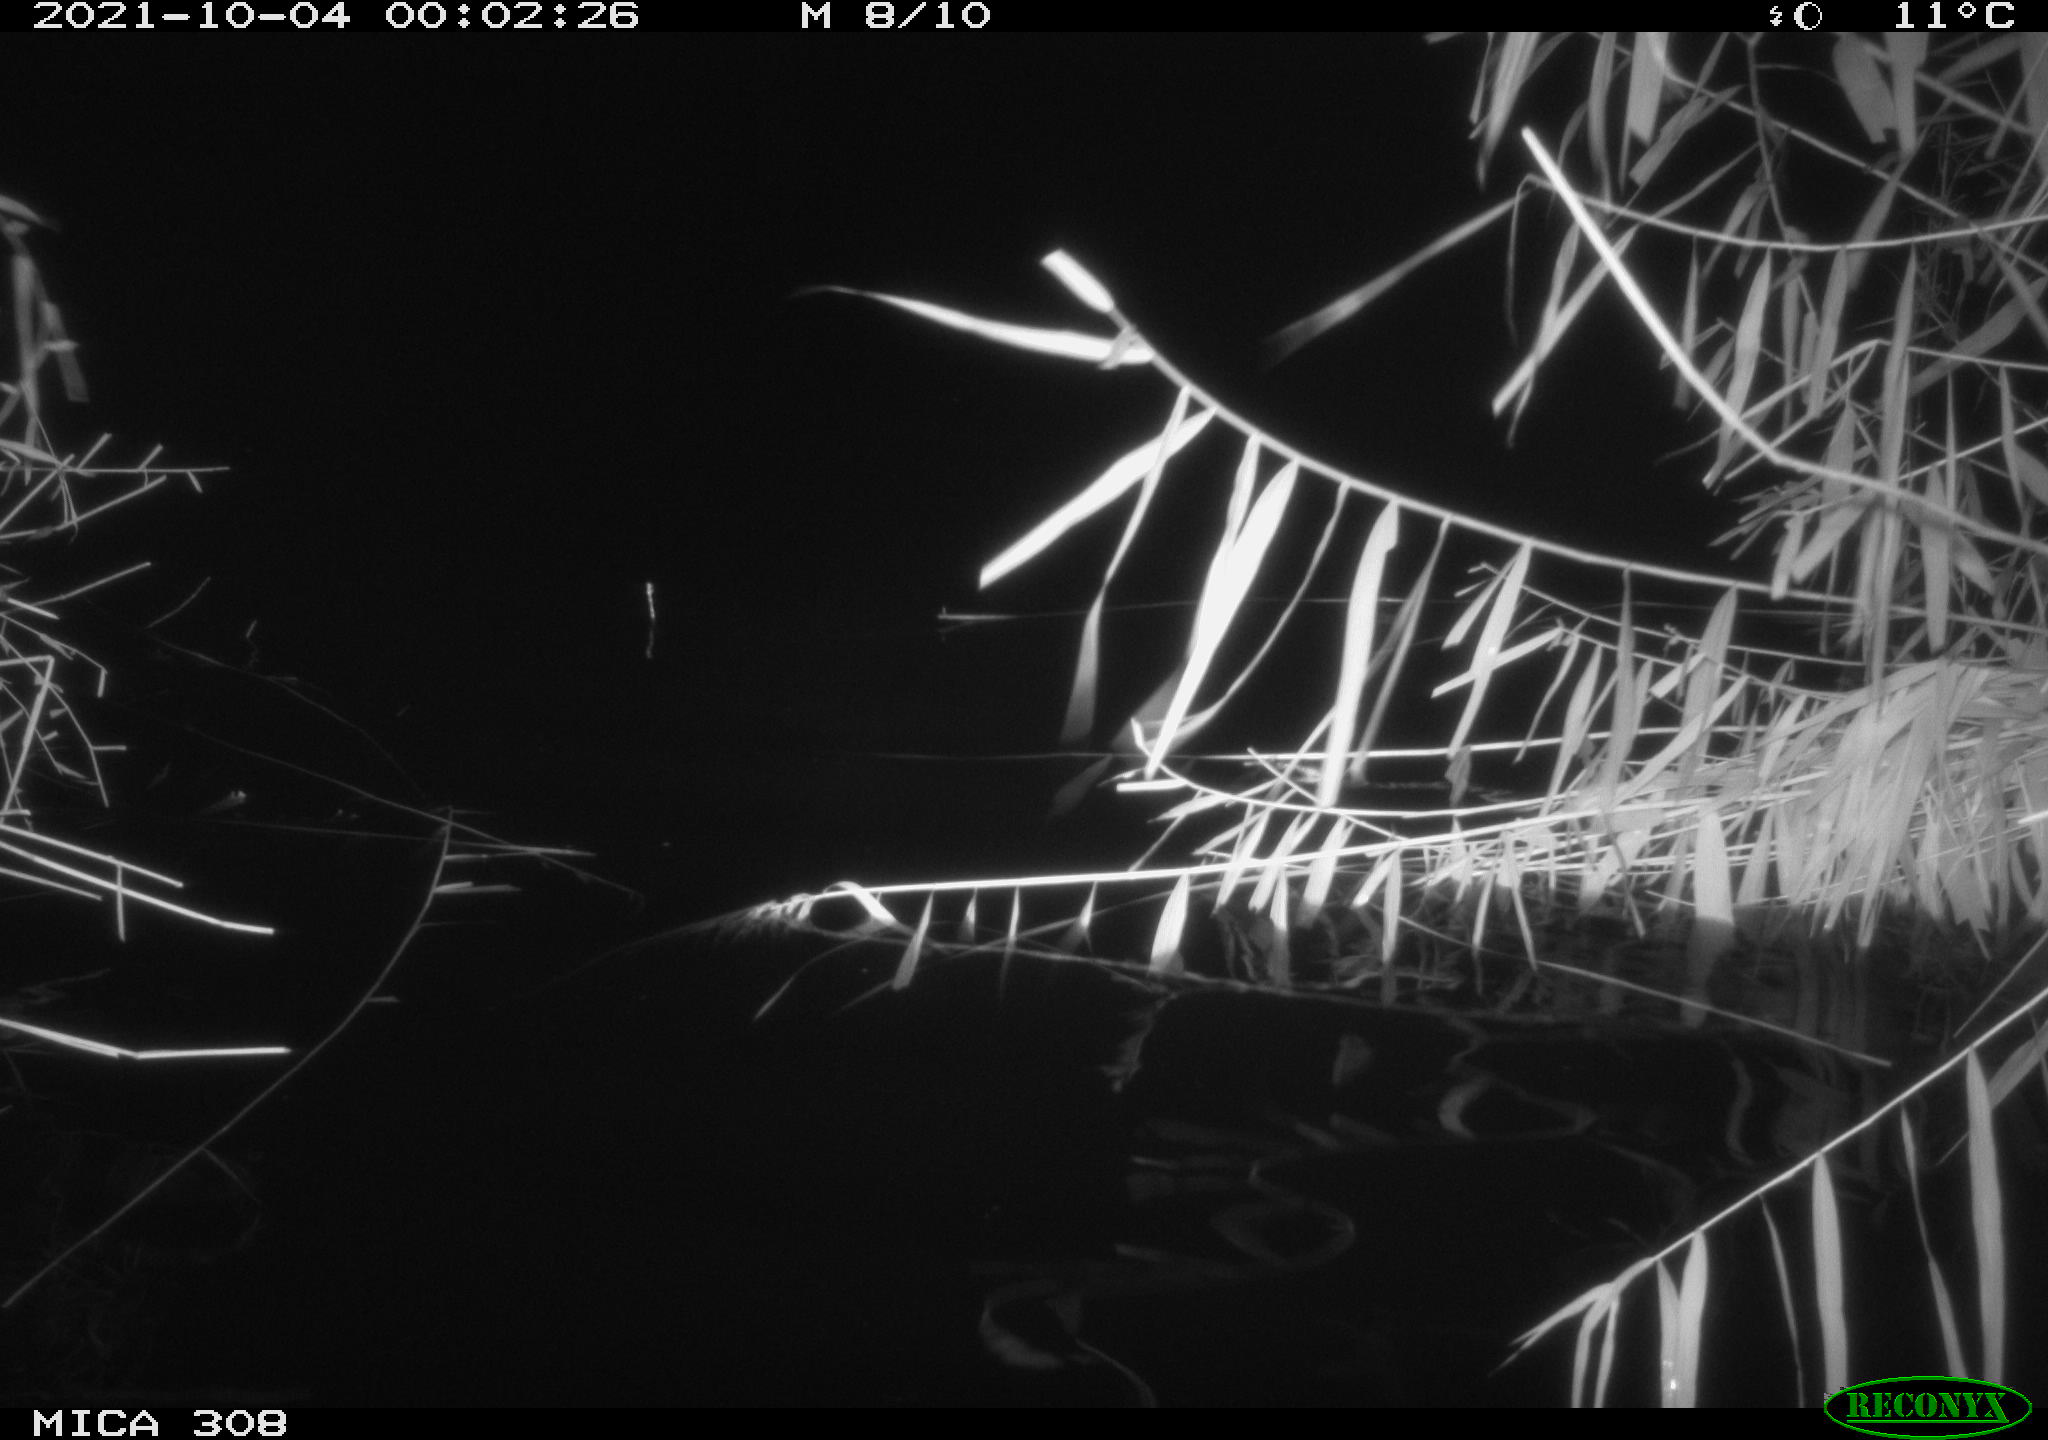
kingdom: Animalia
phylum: Chordata
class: Mammalia
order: Rodentia
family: Muridae
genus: Rattus
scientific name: Rattus norvegicus
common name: Brown rat
